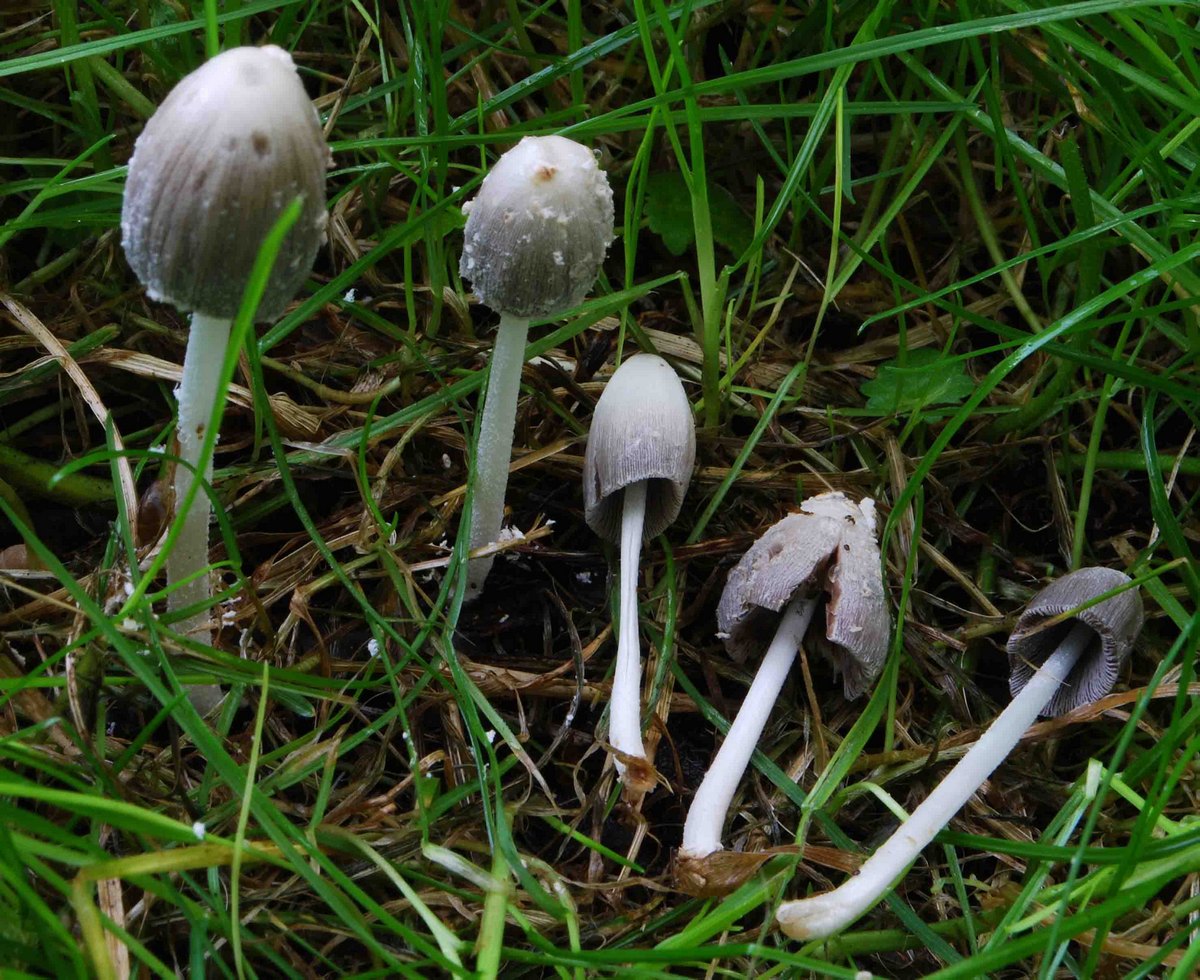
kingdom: Fungi
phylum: Basidiomycota
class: Agaricomycetes
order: Agaricales
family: Psathyrellaceae
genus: Coprinopsis
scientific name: Coprinopsis phaeospora
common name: fælled-blækhat
